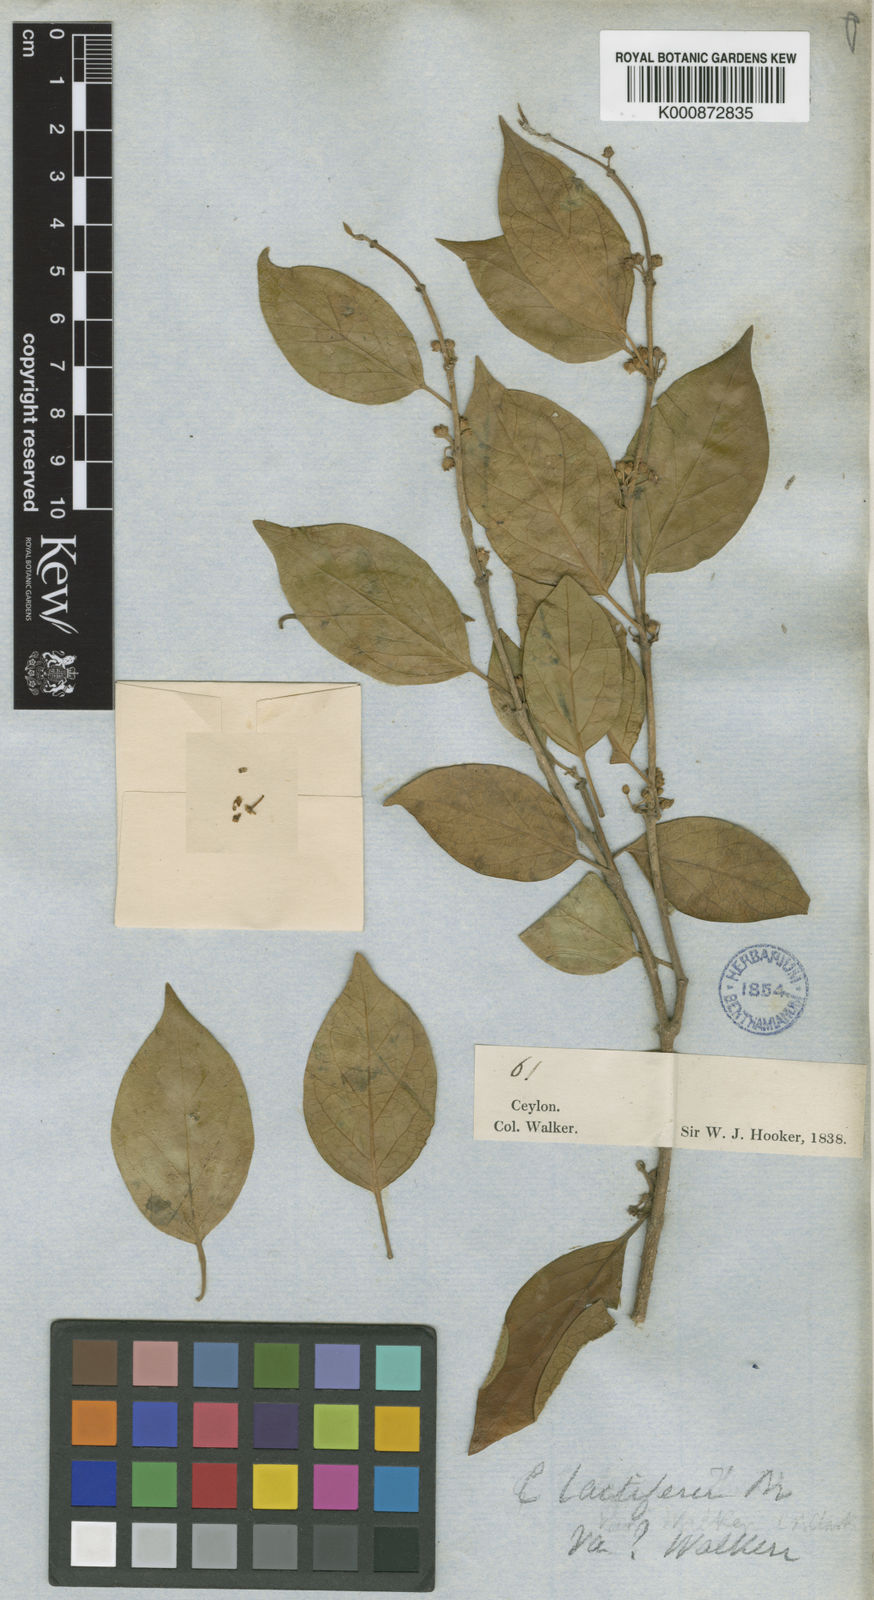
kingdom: Plantae
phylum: Tracheophyta
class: Magnoliopsida
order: Gentianales
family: Apocynaceae
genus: Gymnema
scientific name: Gymnema
